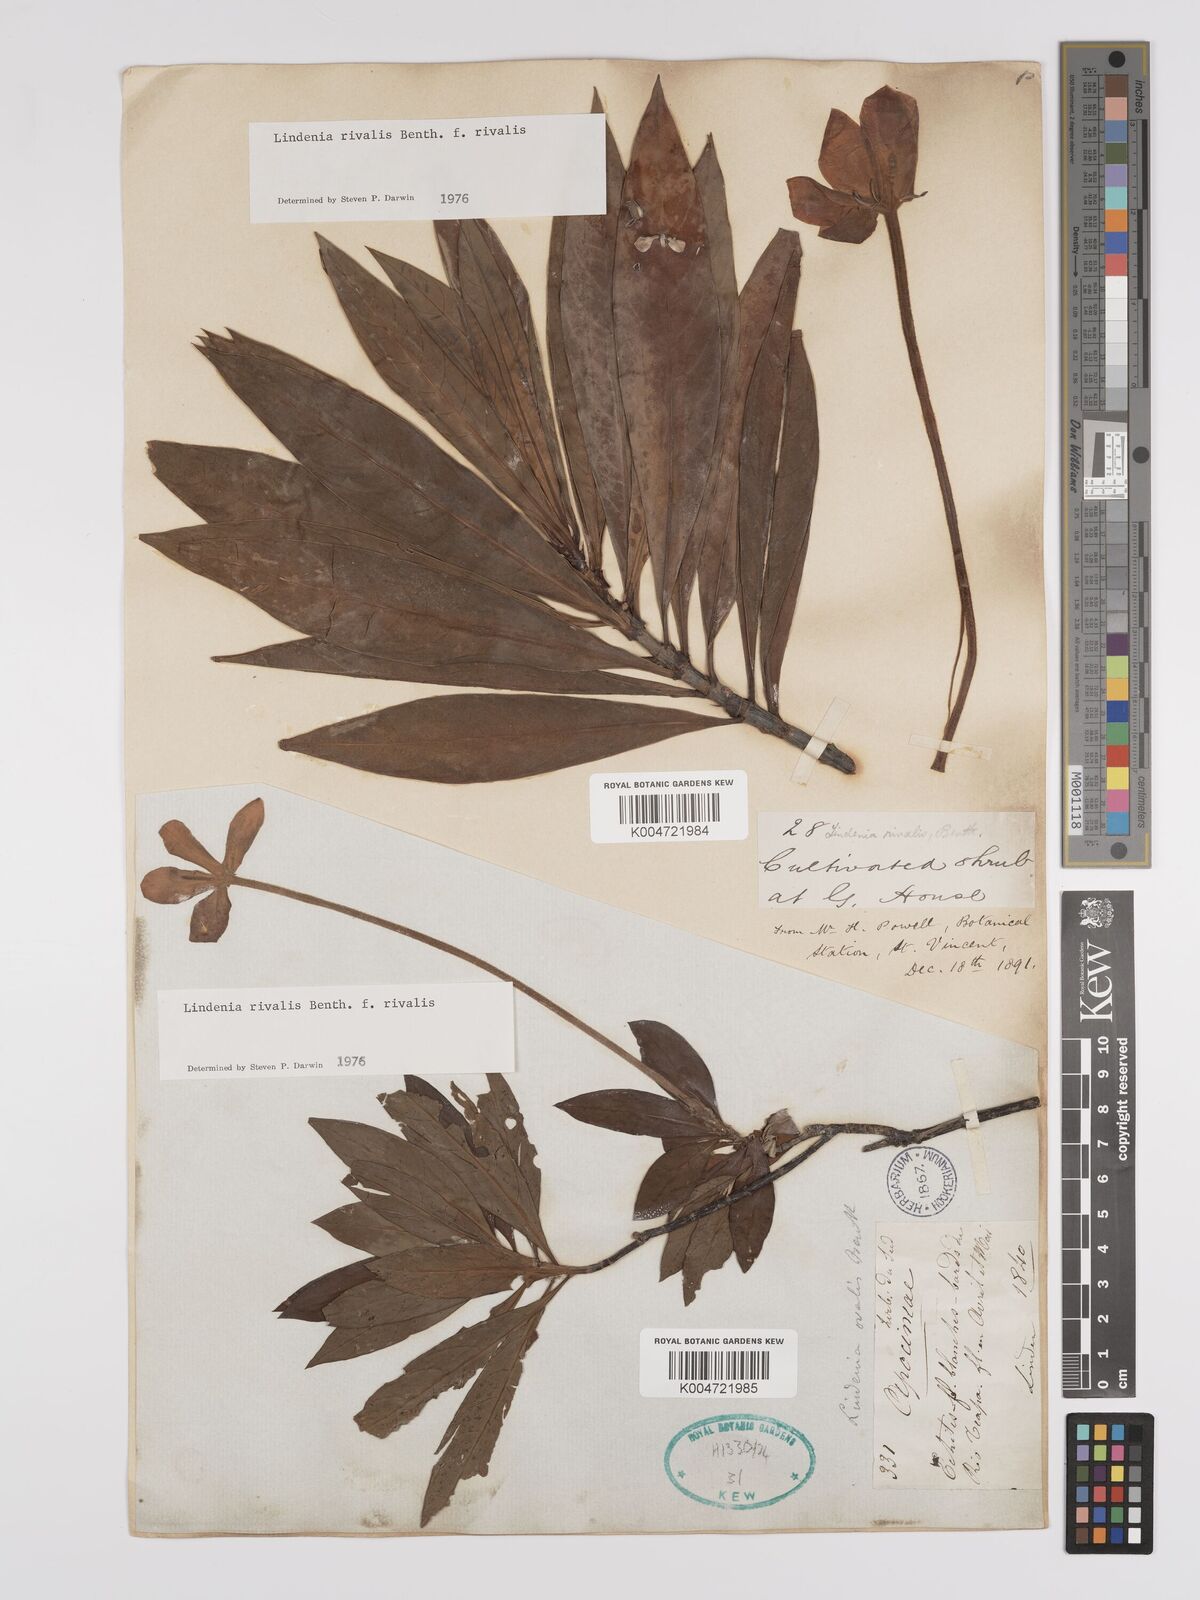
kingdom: Plantae
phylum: Tracheophyta
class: Magnoliopsida
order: Gentianales
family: Rubiaceae
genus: Augusta
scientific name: Augusta rivalis
